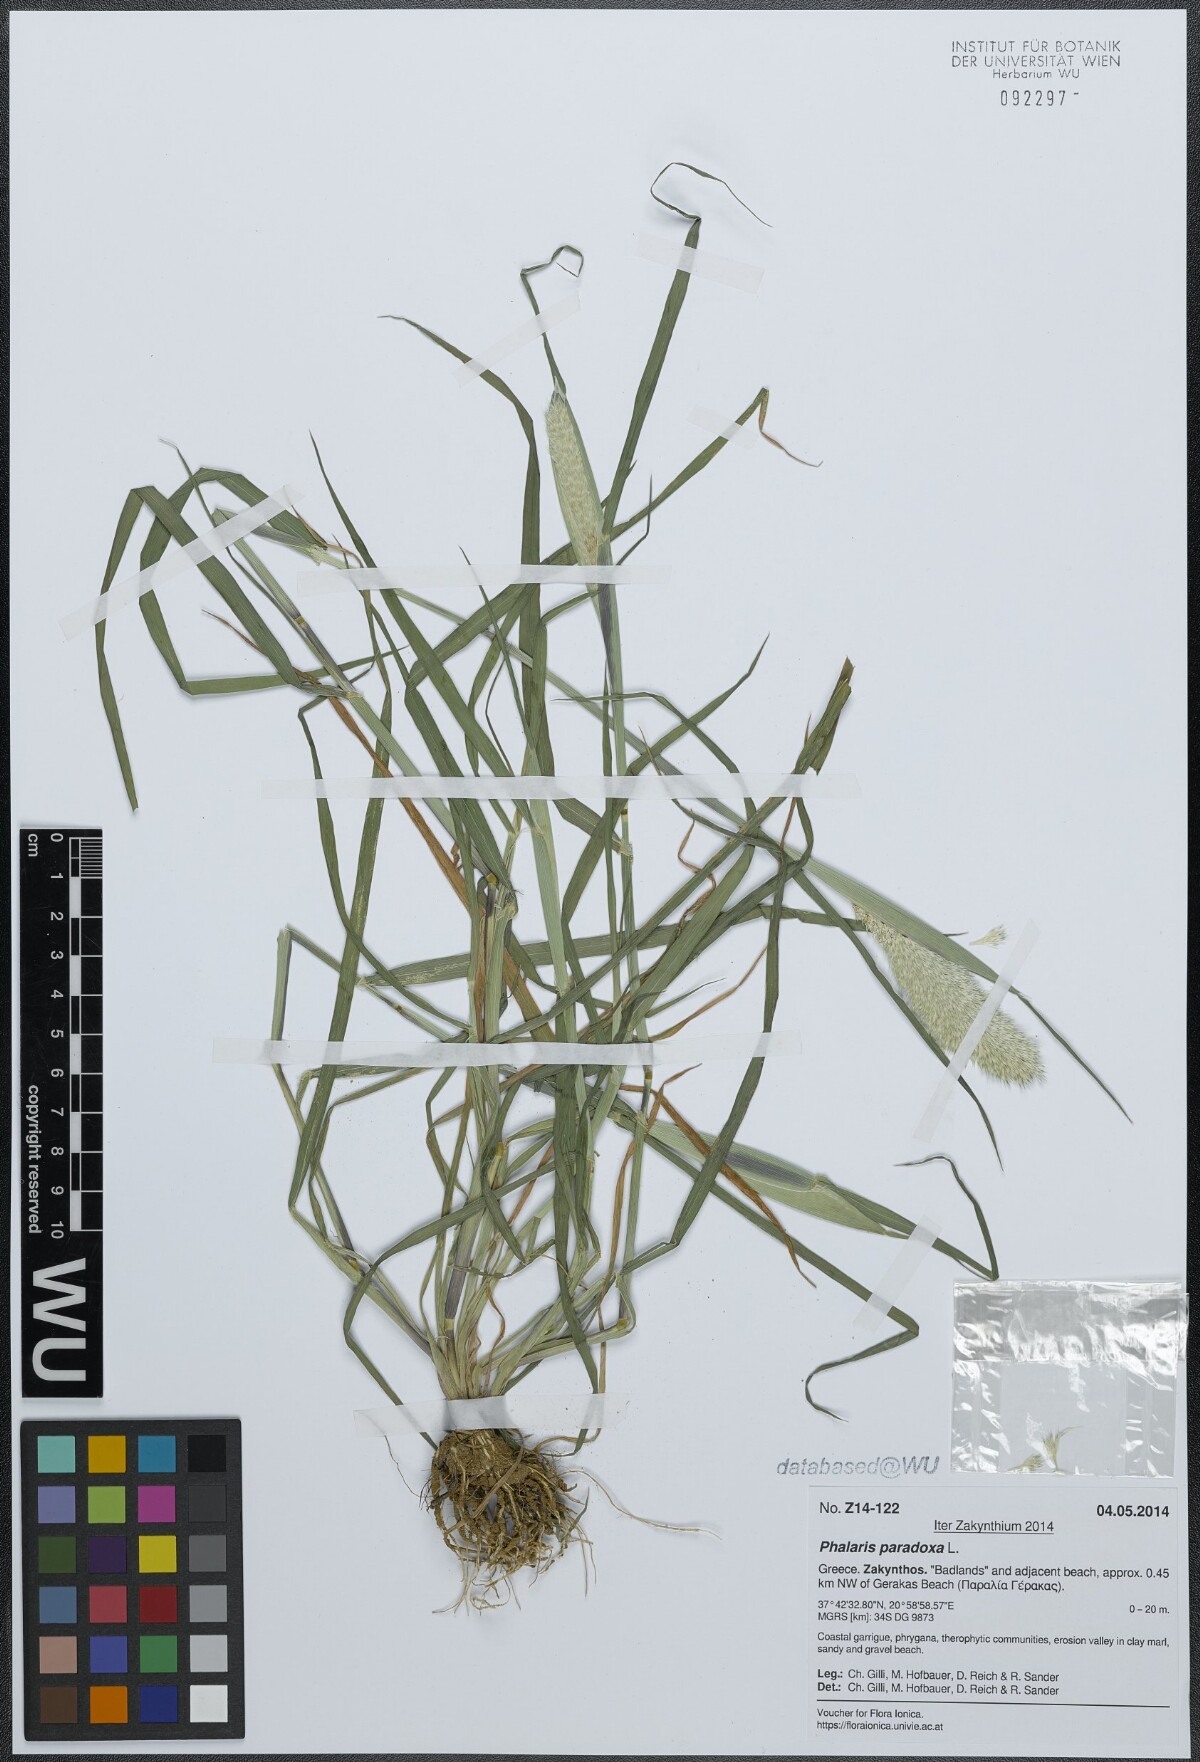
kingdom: Plantae
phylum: Tracheophyta
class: Liliopsida
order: Poales
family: Poaceae
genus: Phalaris
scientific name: Phalaris paradoxa
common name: Awned canary-grass
